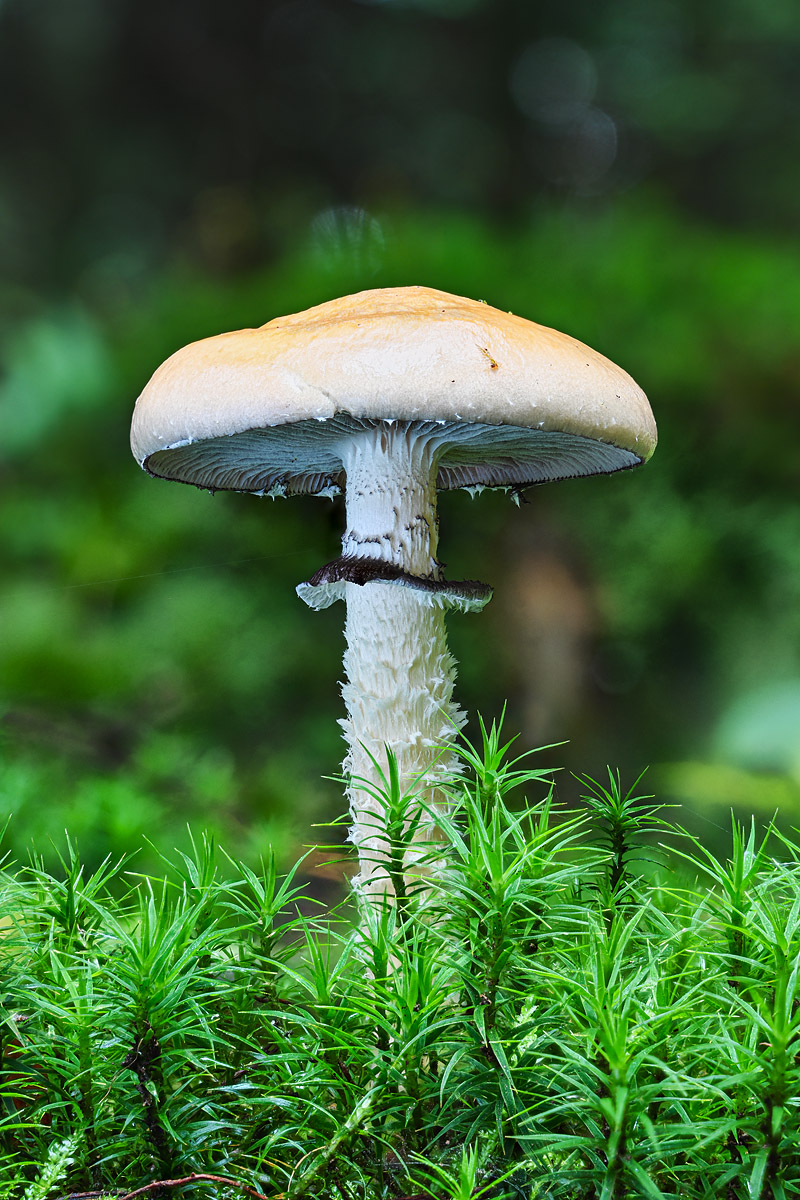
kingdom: Fungi
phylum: Basidiomycota
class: Agaricomycetes
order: Agaricales
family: Strophariaceae
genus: Stropharia
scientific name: Stropharia hornemannii
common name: nordisk bredblad
